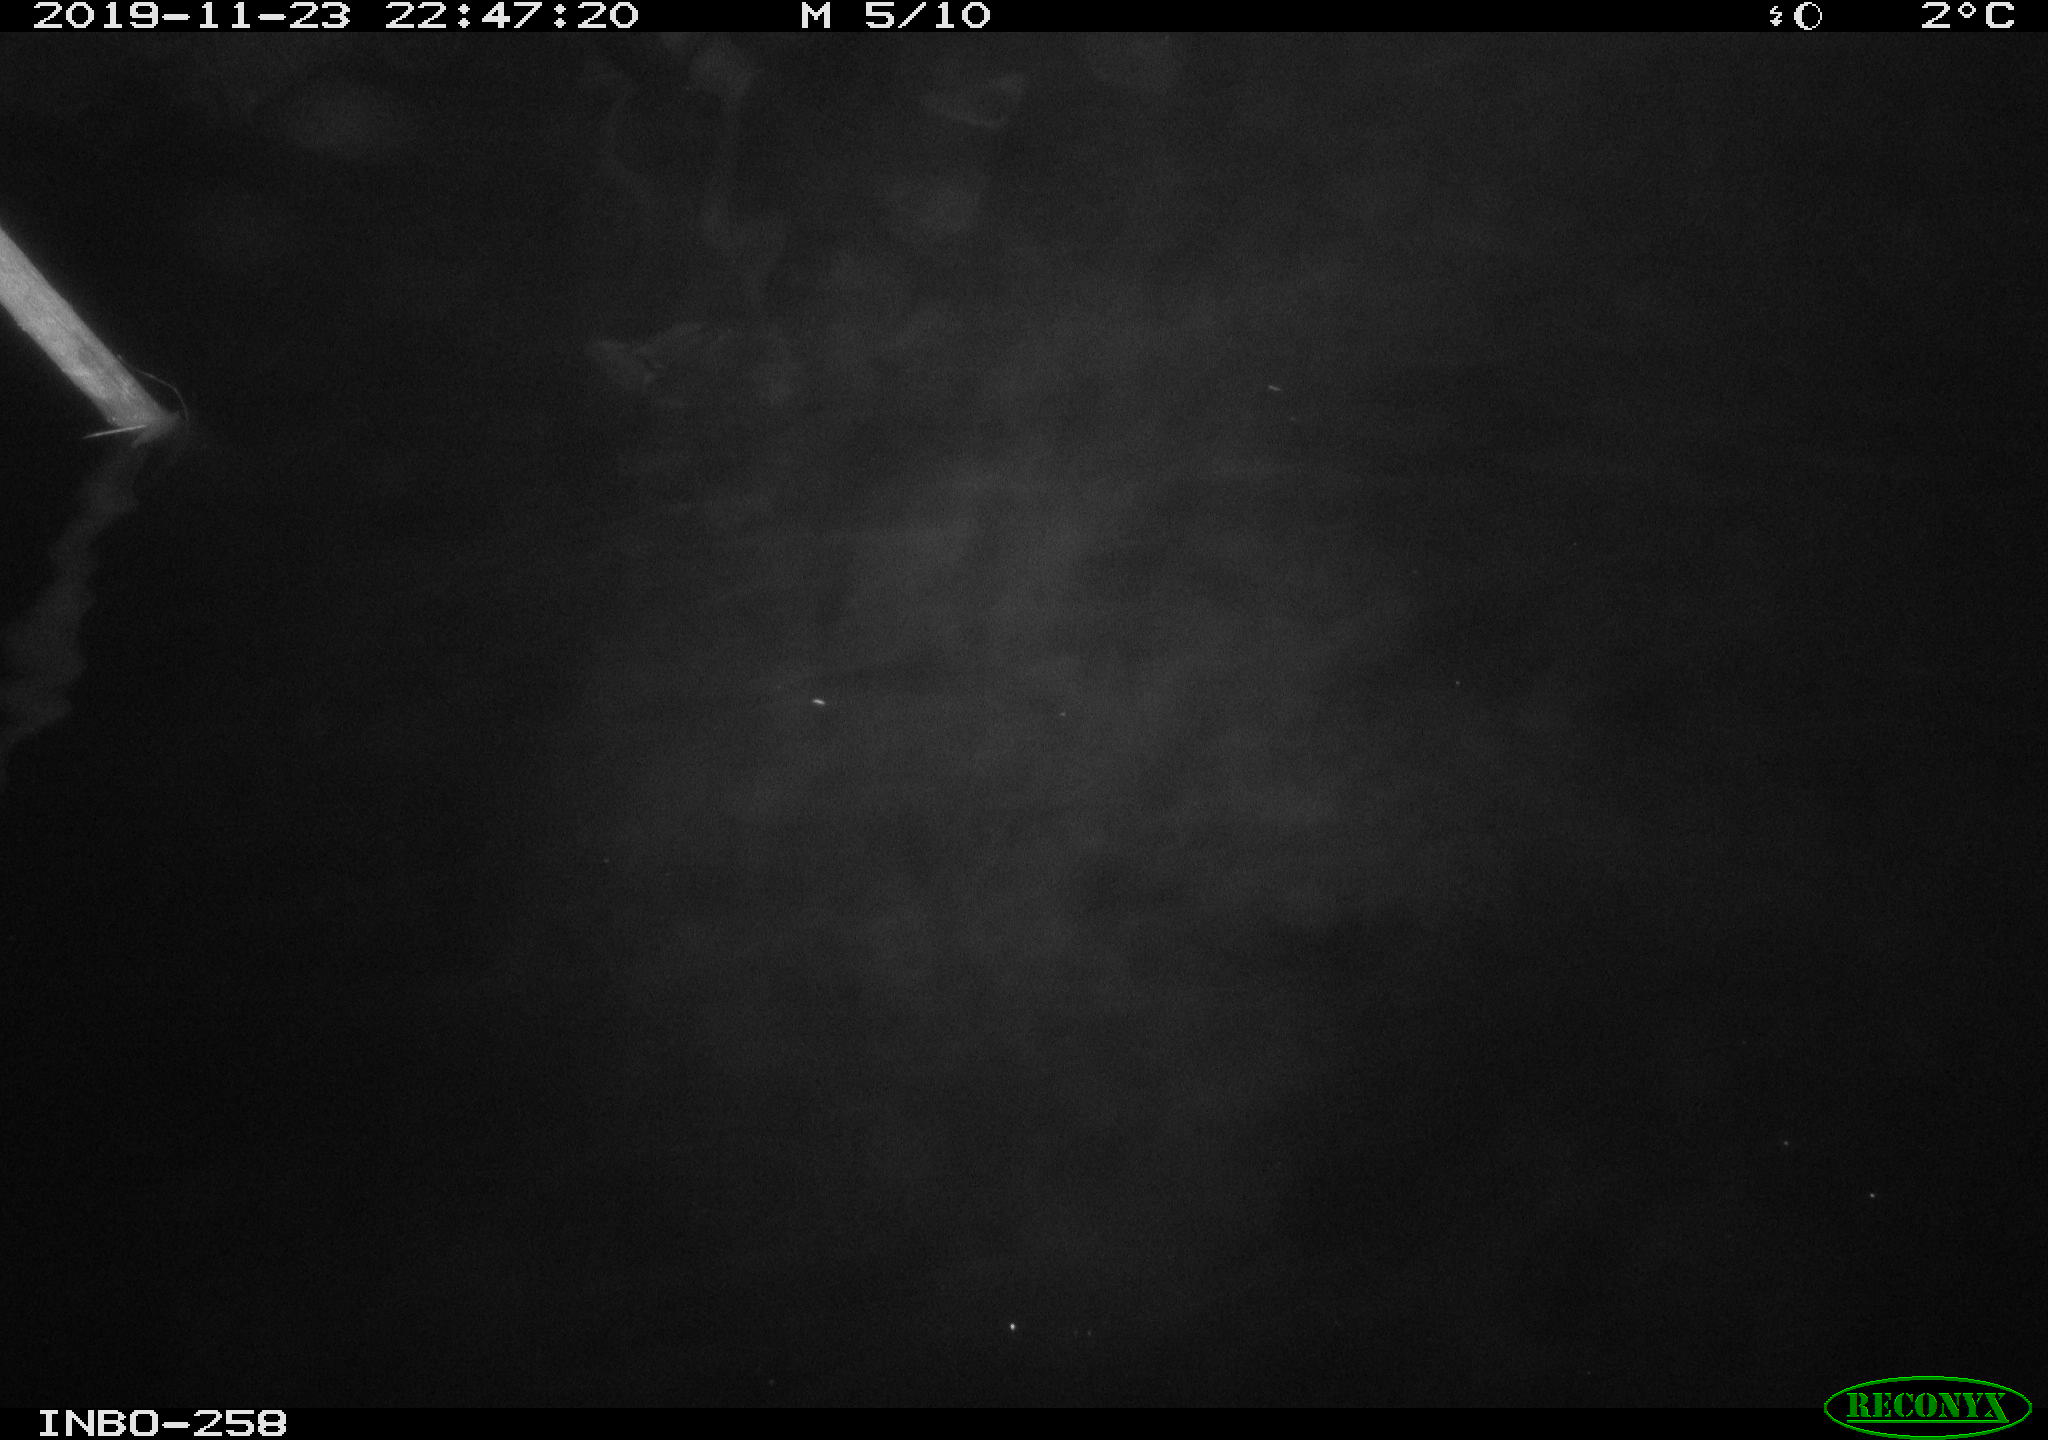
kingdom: Animalia
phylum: Chordata
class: Aves
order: Anseriformes
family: Anatidae
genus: Anas
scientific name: Anas platyrhynchos
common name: Mallard
